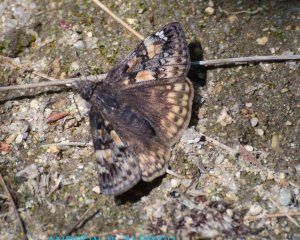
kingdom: Animalia
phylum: Arthropoda
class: Insecta
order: Lepidoptera
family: Hesperiidae
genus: Gesta
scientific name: Gesta
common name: Juvenal's Duskywing
